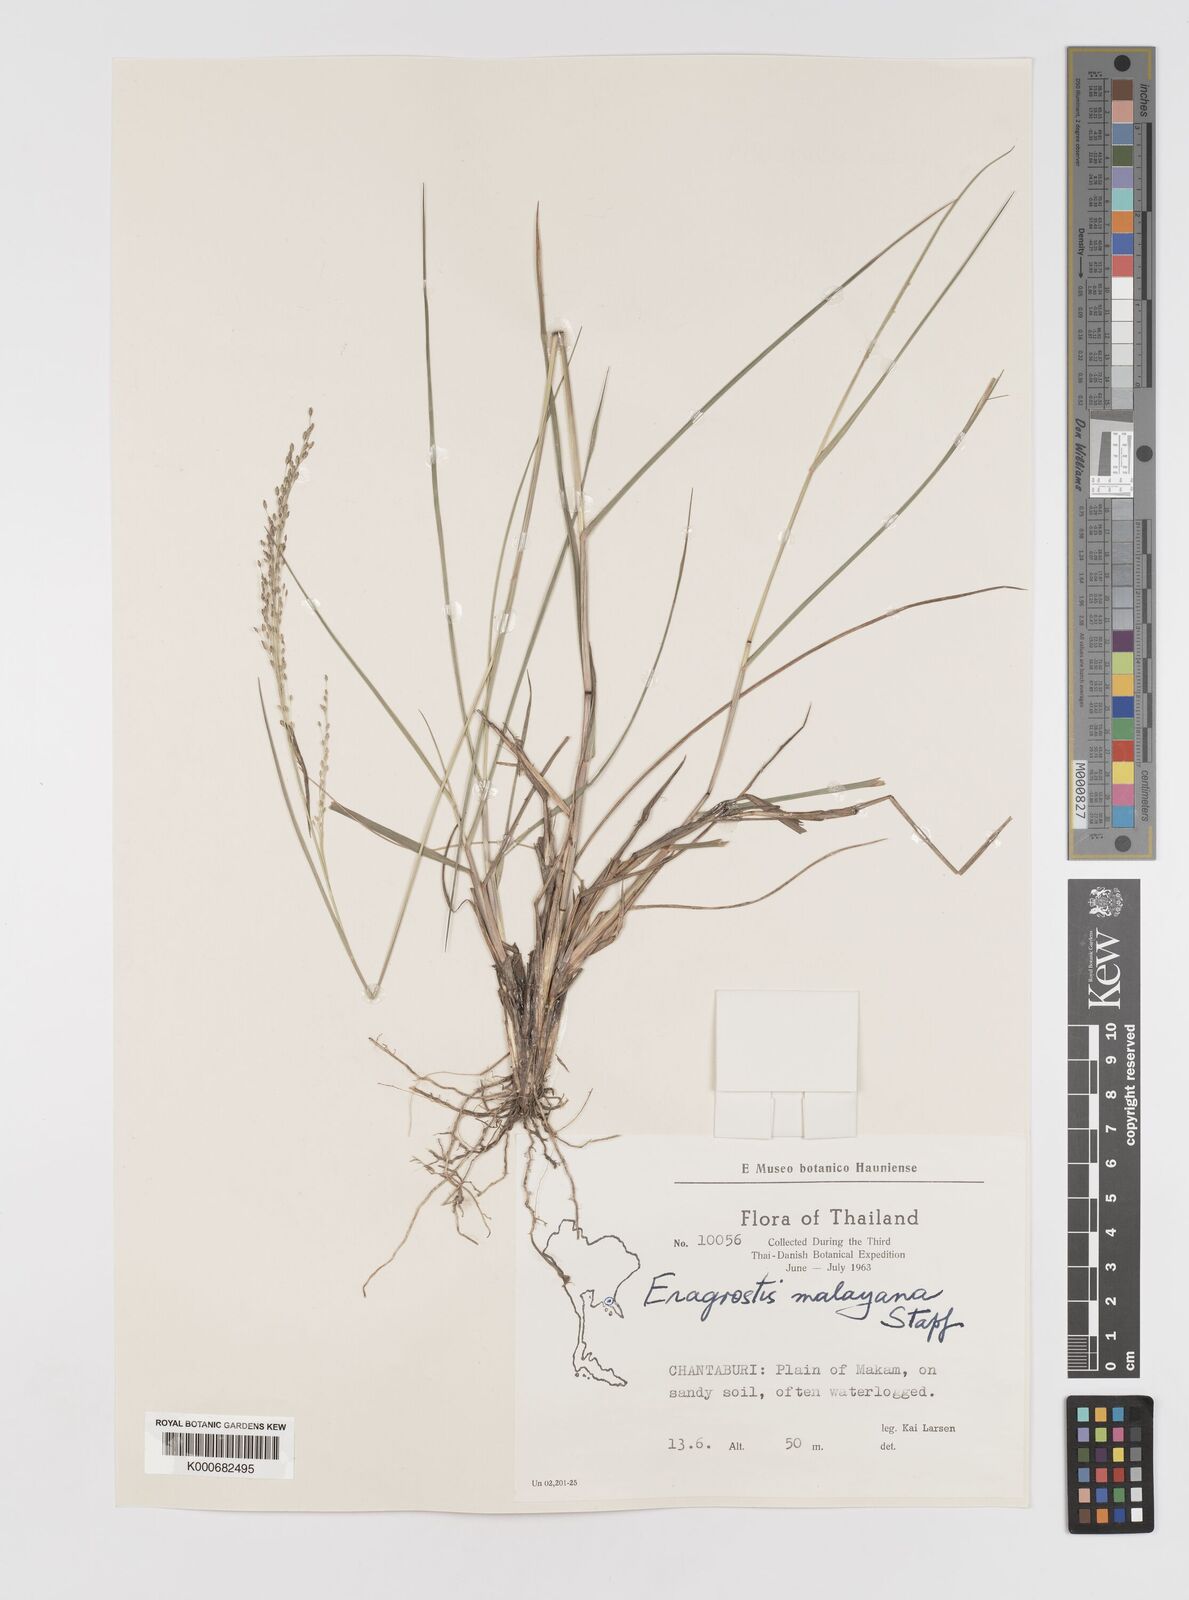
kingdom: Plantae
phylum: Tracheophyta
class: Liliopsida
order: Poales
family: Poaceae
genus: Eragrostis
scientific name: Eragrostis montana
